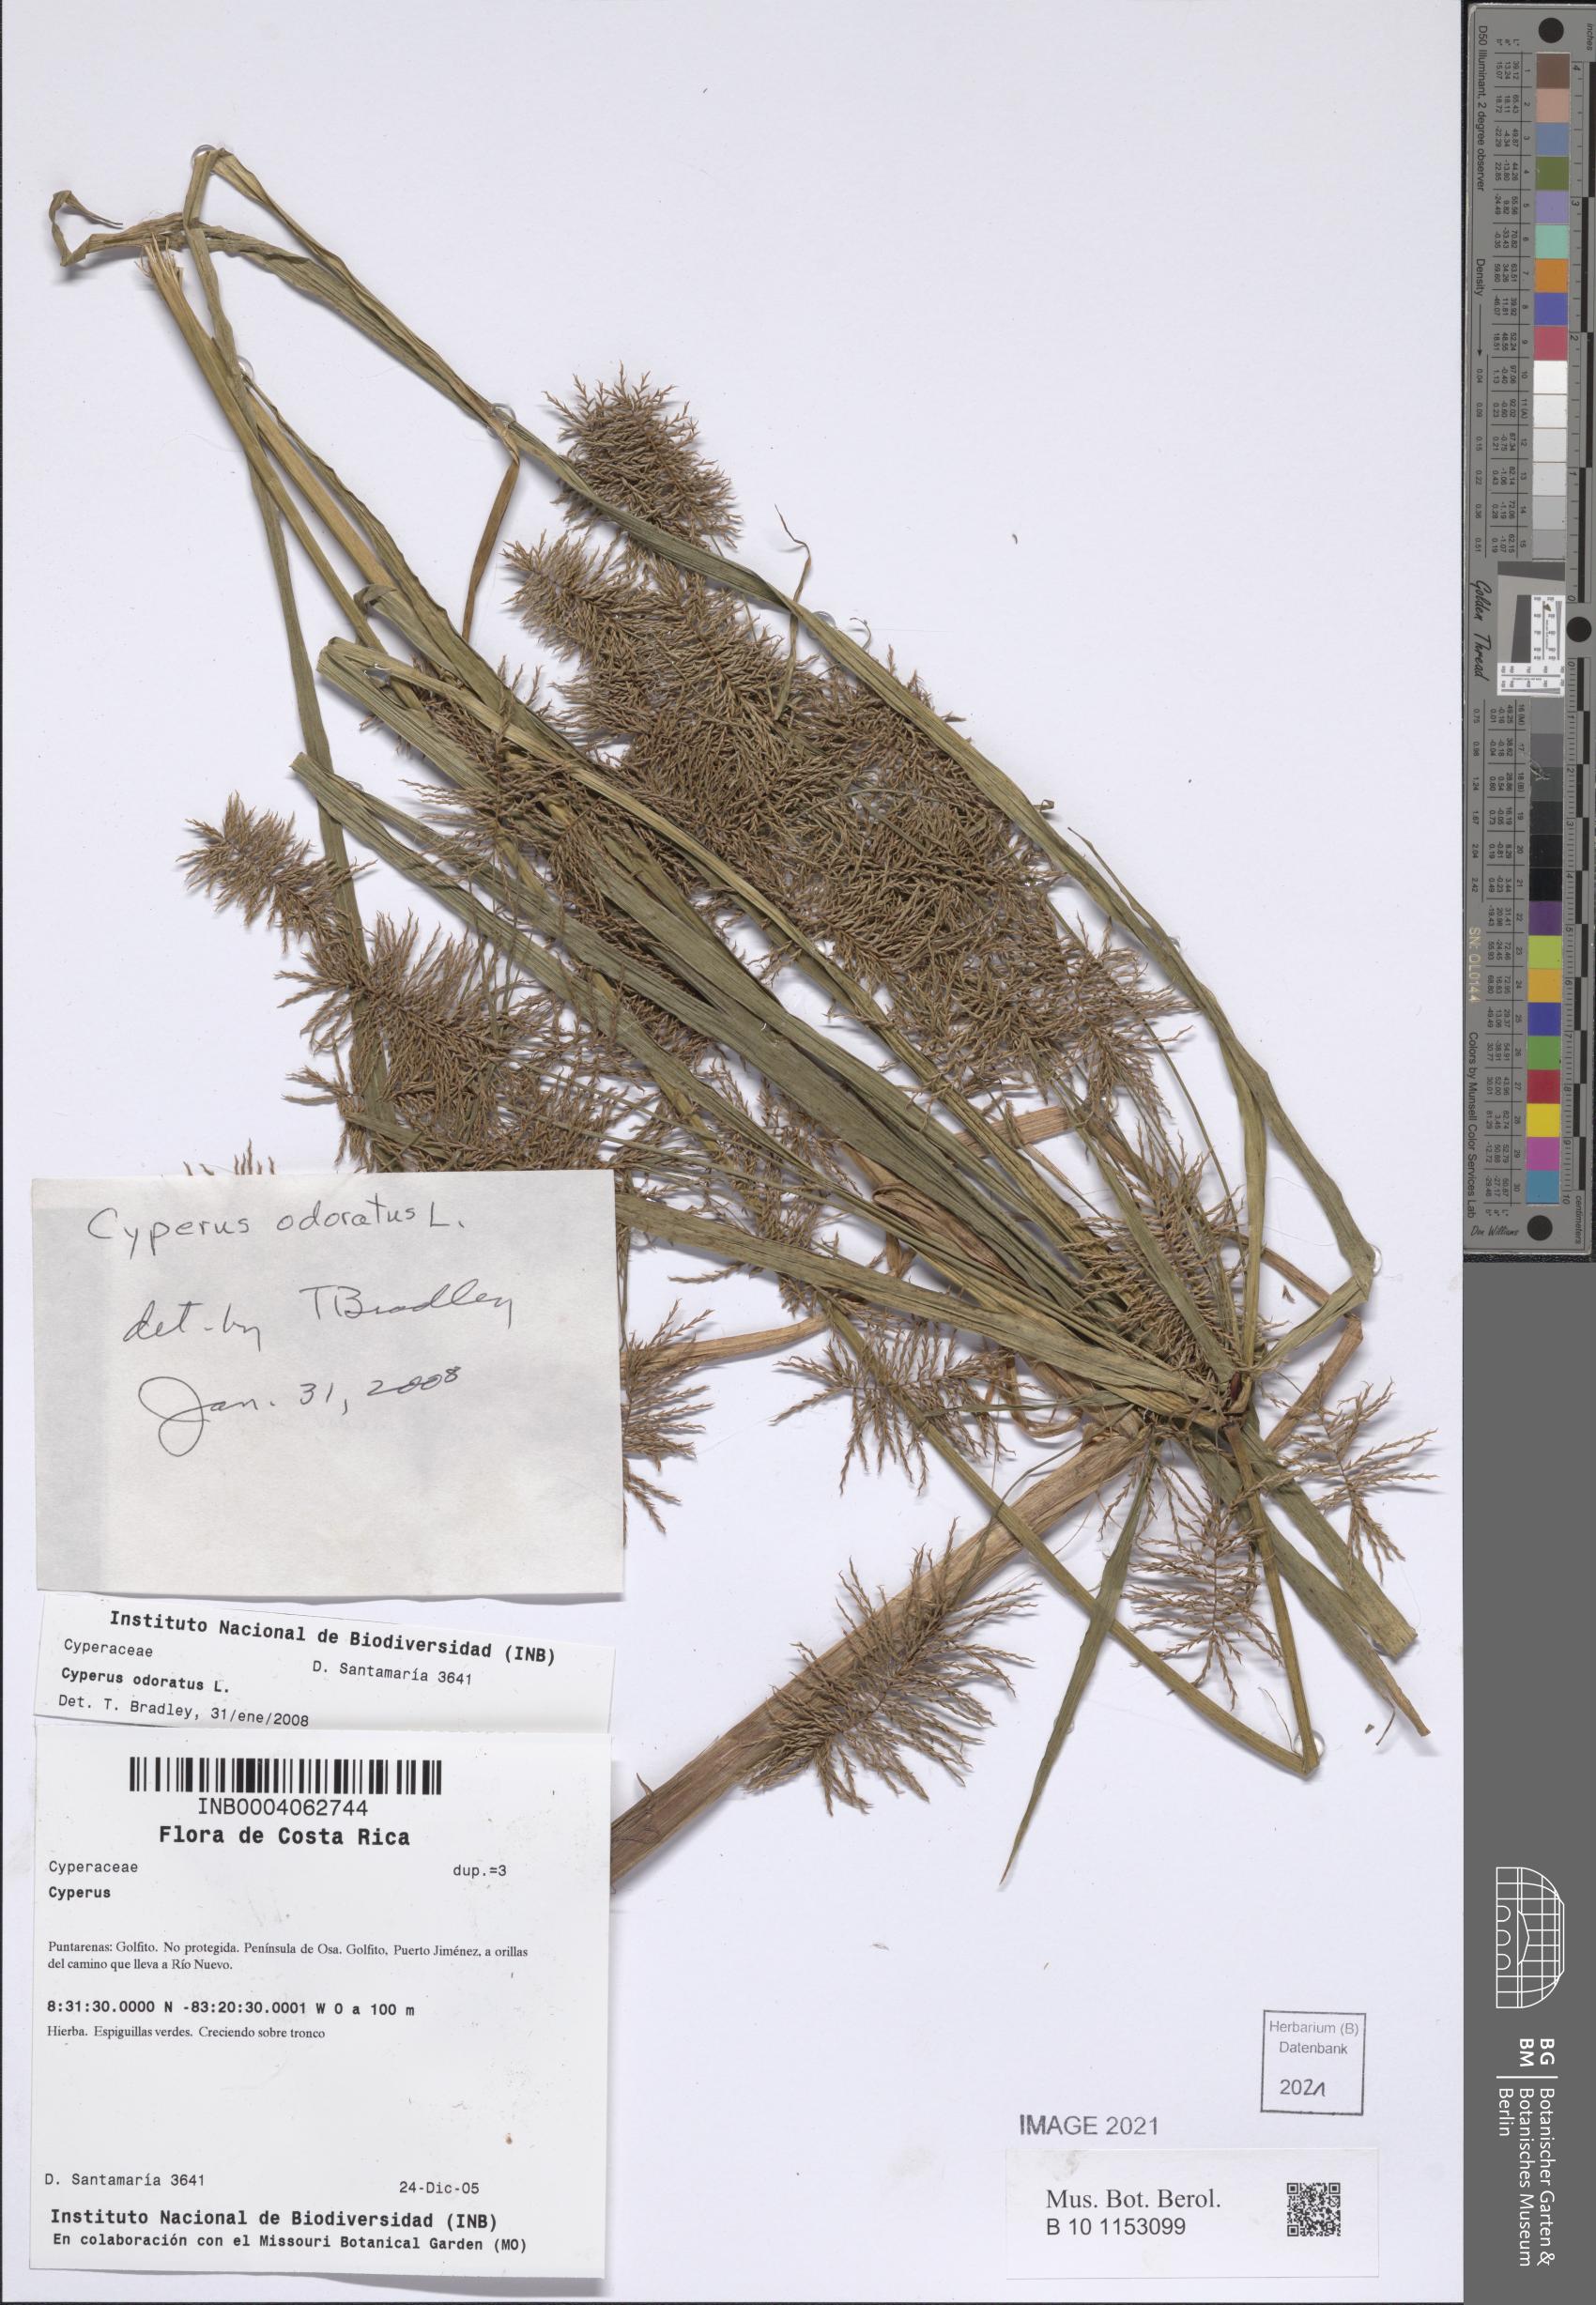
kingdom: Plantae
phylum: Tracheophyta
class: Liliopsida
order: Poales
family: Cyperaceae
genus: Cyperus
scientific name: Cyperus odoratus
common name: Fragrant flatsedge
